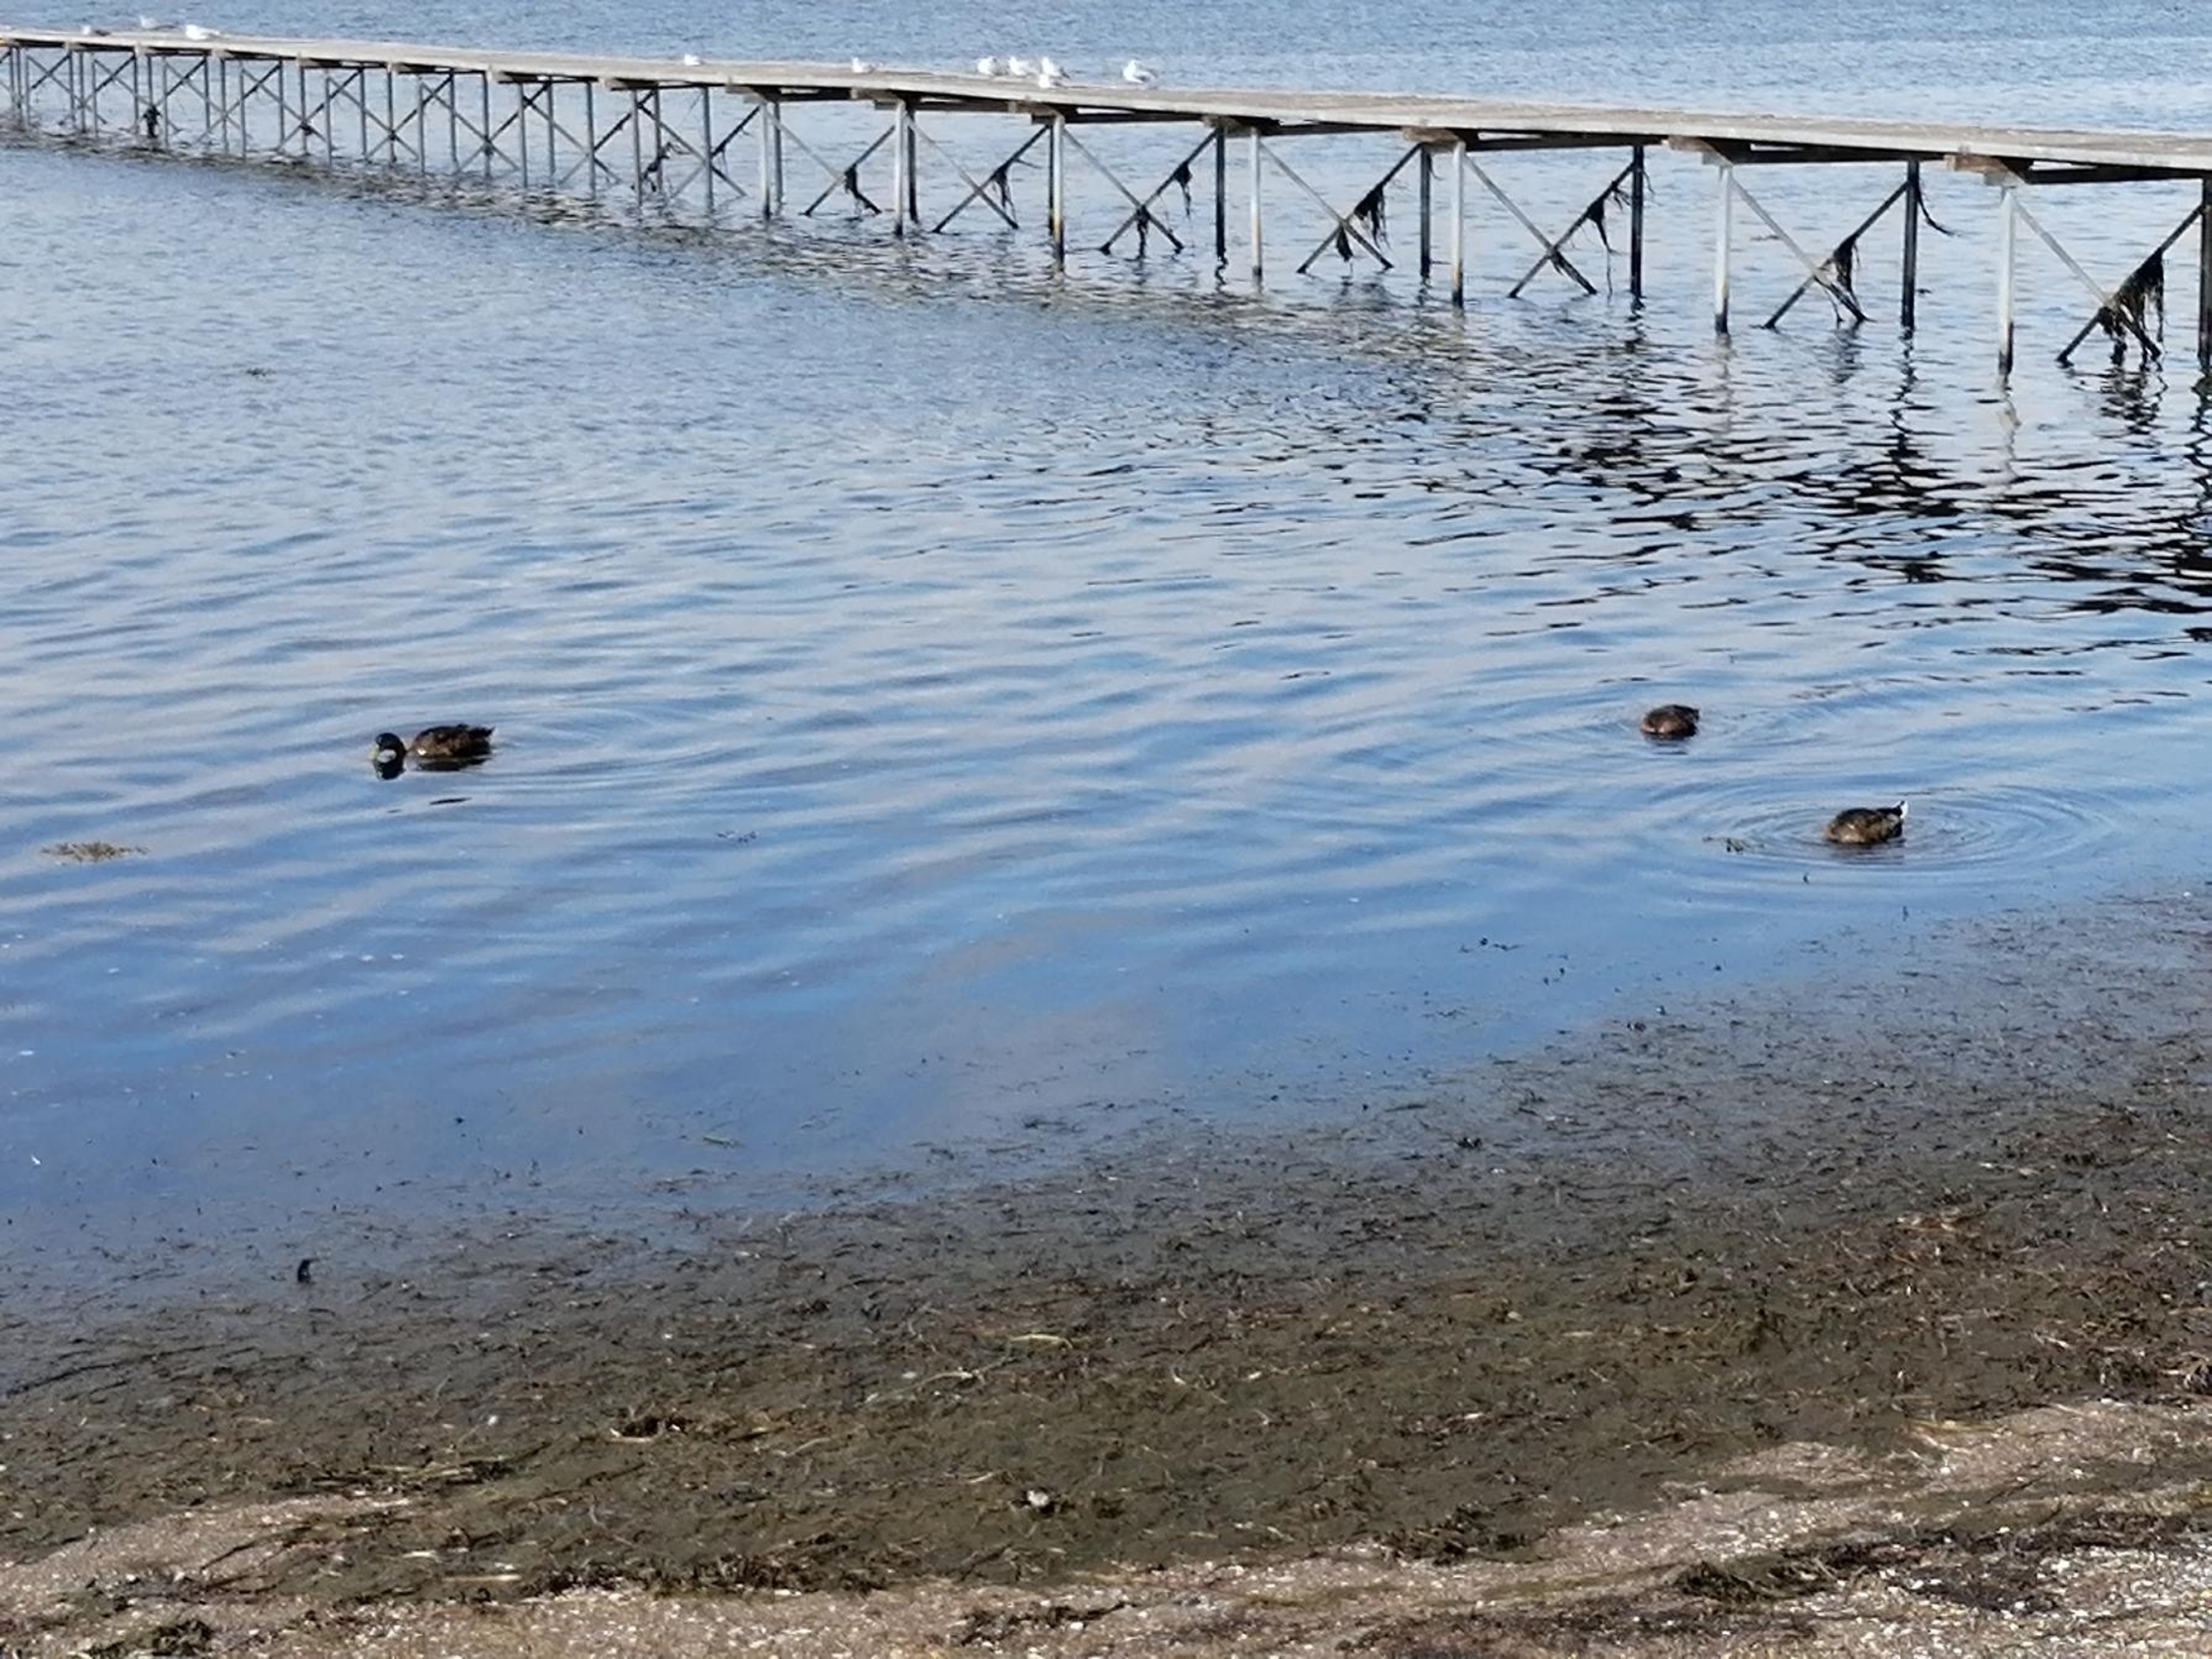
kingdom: Animalia
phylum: Chordata
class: Aves
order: Anseriformes
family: Anatidae
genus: Anas
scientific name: Anas platyrhynchos
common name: Gråand
